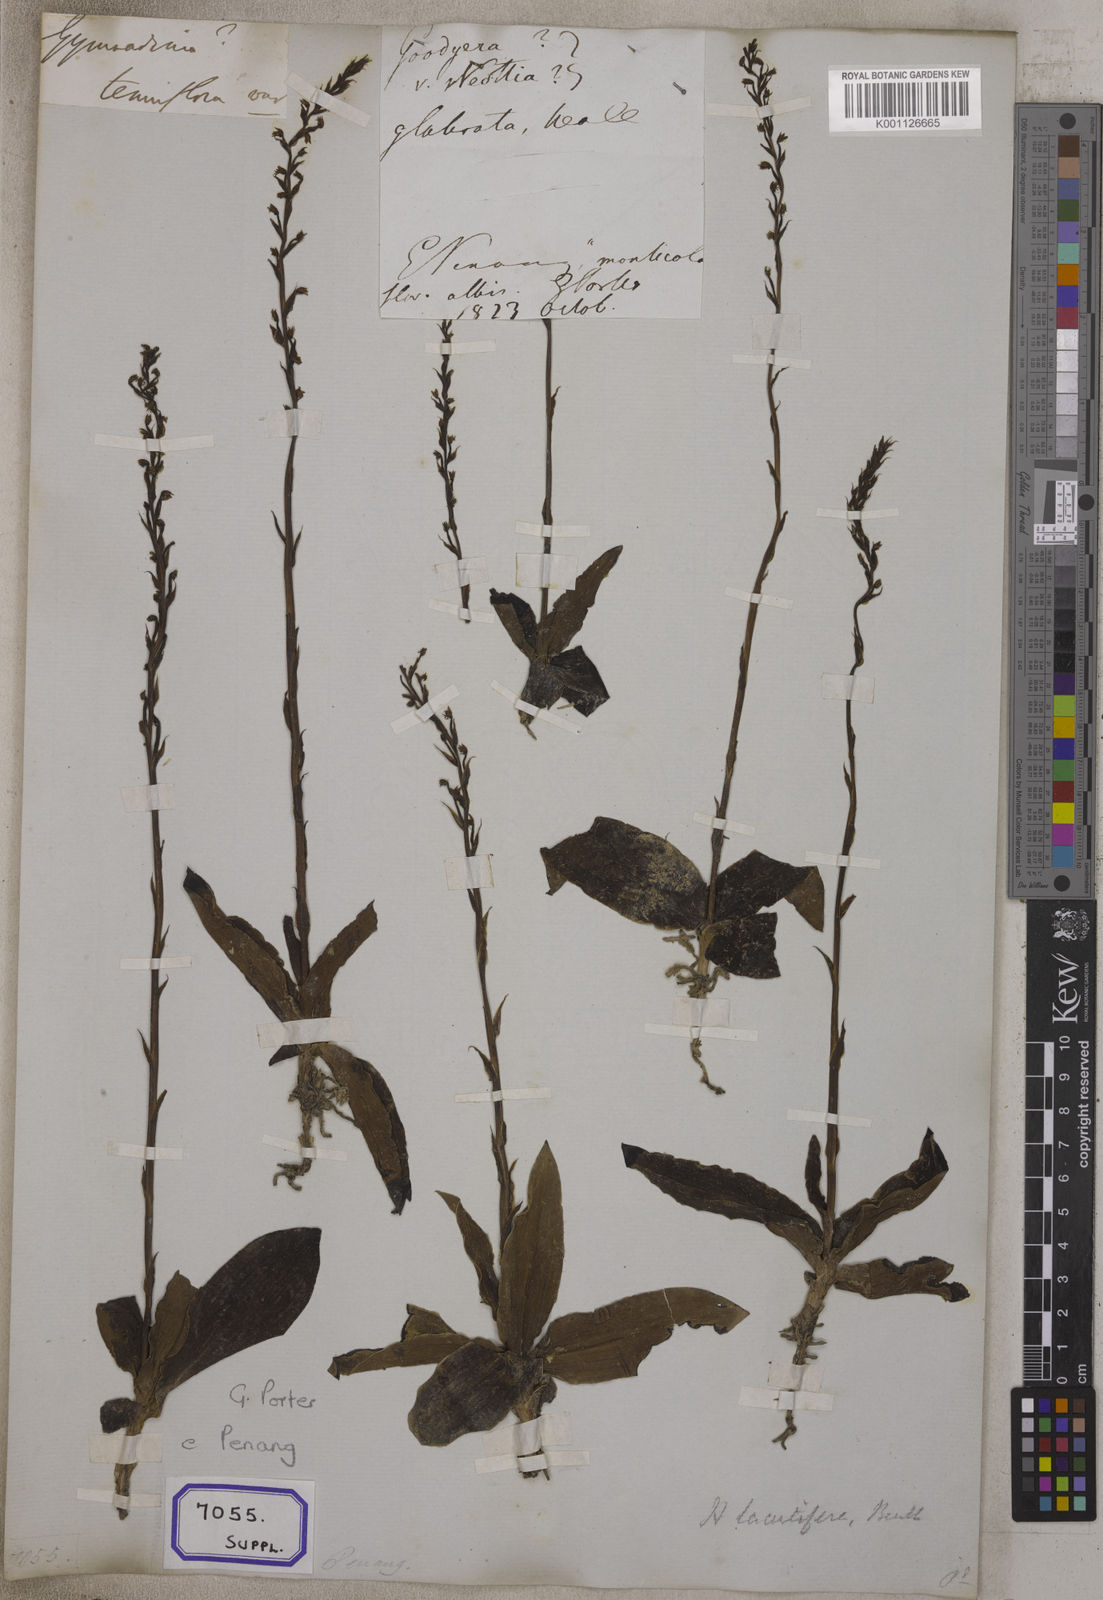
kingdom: Plantae
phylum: Tracheophyta
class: Liliopsida
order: Asparagales
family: Orchidaceae
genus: Gymnadenia
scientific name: Gymnadenia
